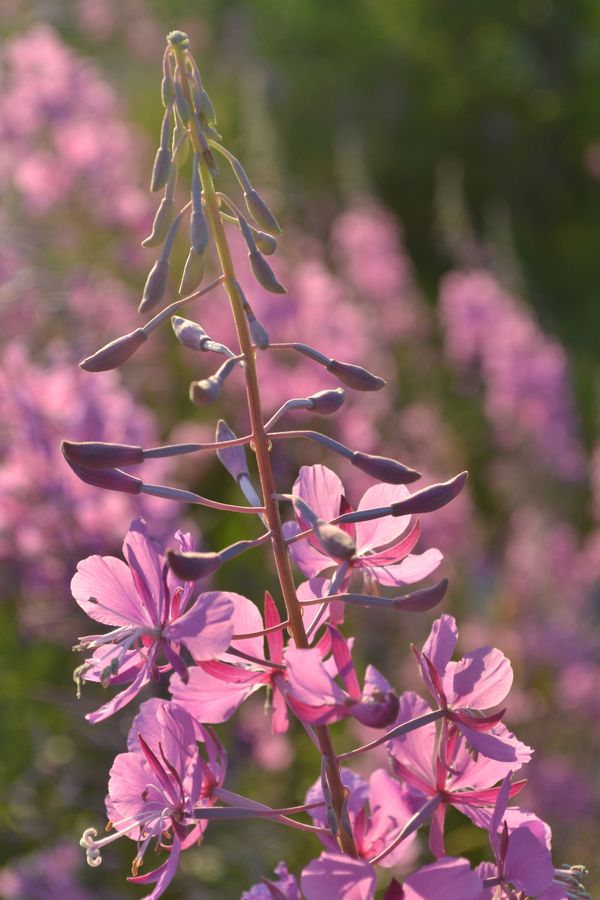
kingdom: Plantae
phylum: Tracheophyta
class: Magnoliopsida
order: Myrtales
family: Onagraceae
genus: Chamaenerion
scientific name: Chamaenerion angustifolium
